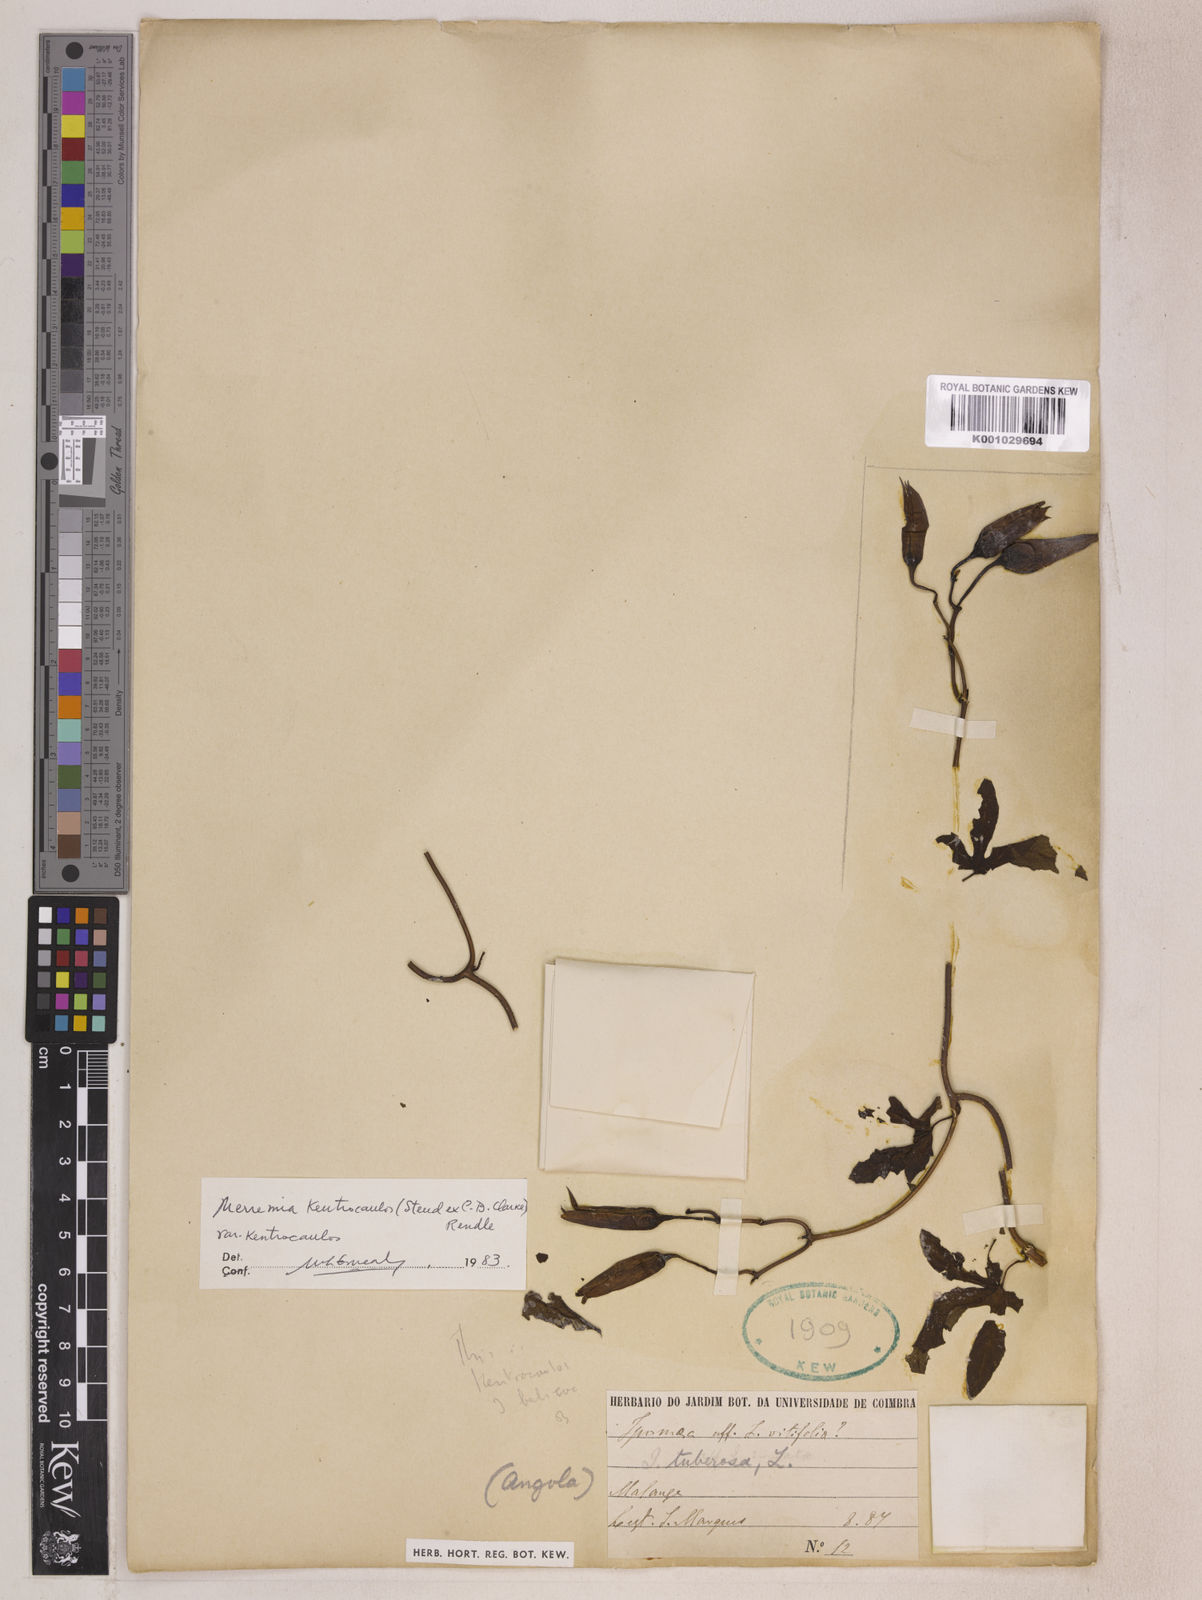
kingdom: Plantae
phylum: Tracheophyta
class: Magnoliopsida
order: Solanales
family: Convolvulaceae
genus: Distimake
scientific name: Distimake kentrocaulos
